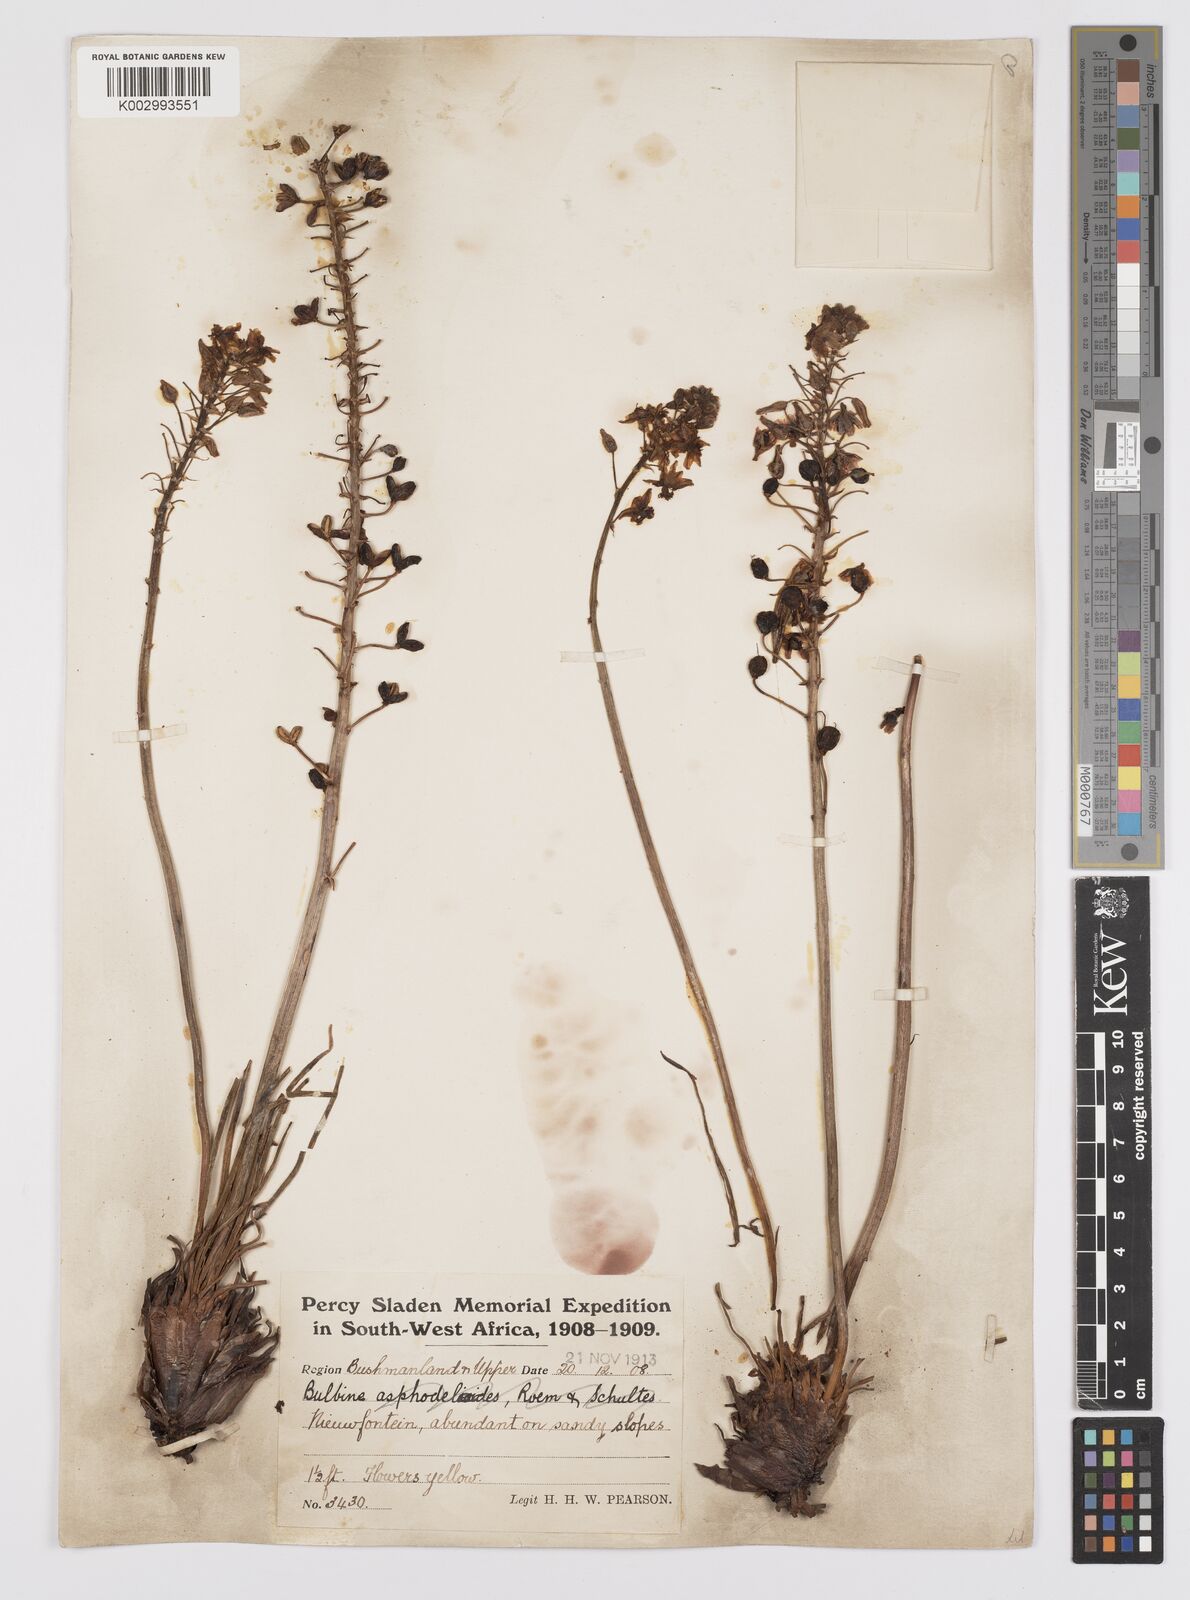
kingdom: Plantae
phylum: Tracheophyta
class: Liliopsida
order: Asparagales
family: Asphodelaceae
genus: Bulbine
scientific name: Bulbine
